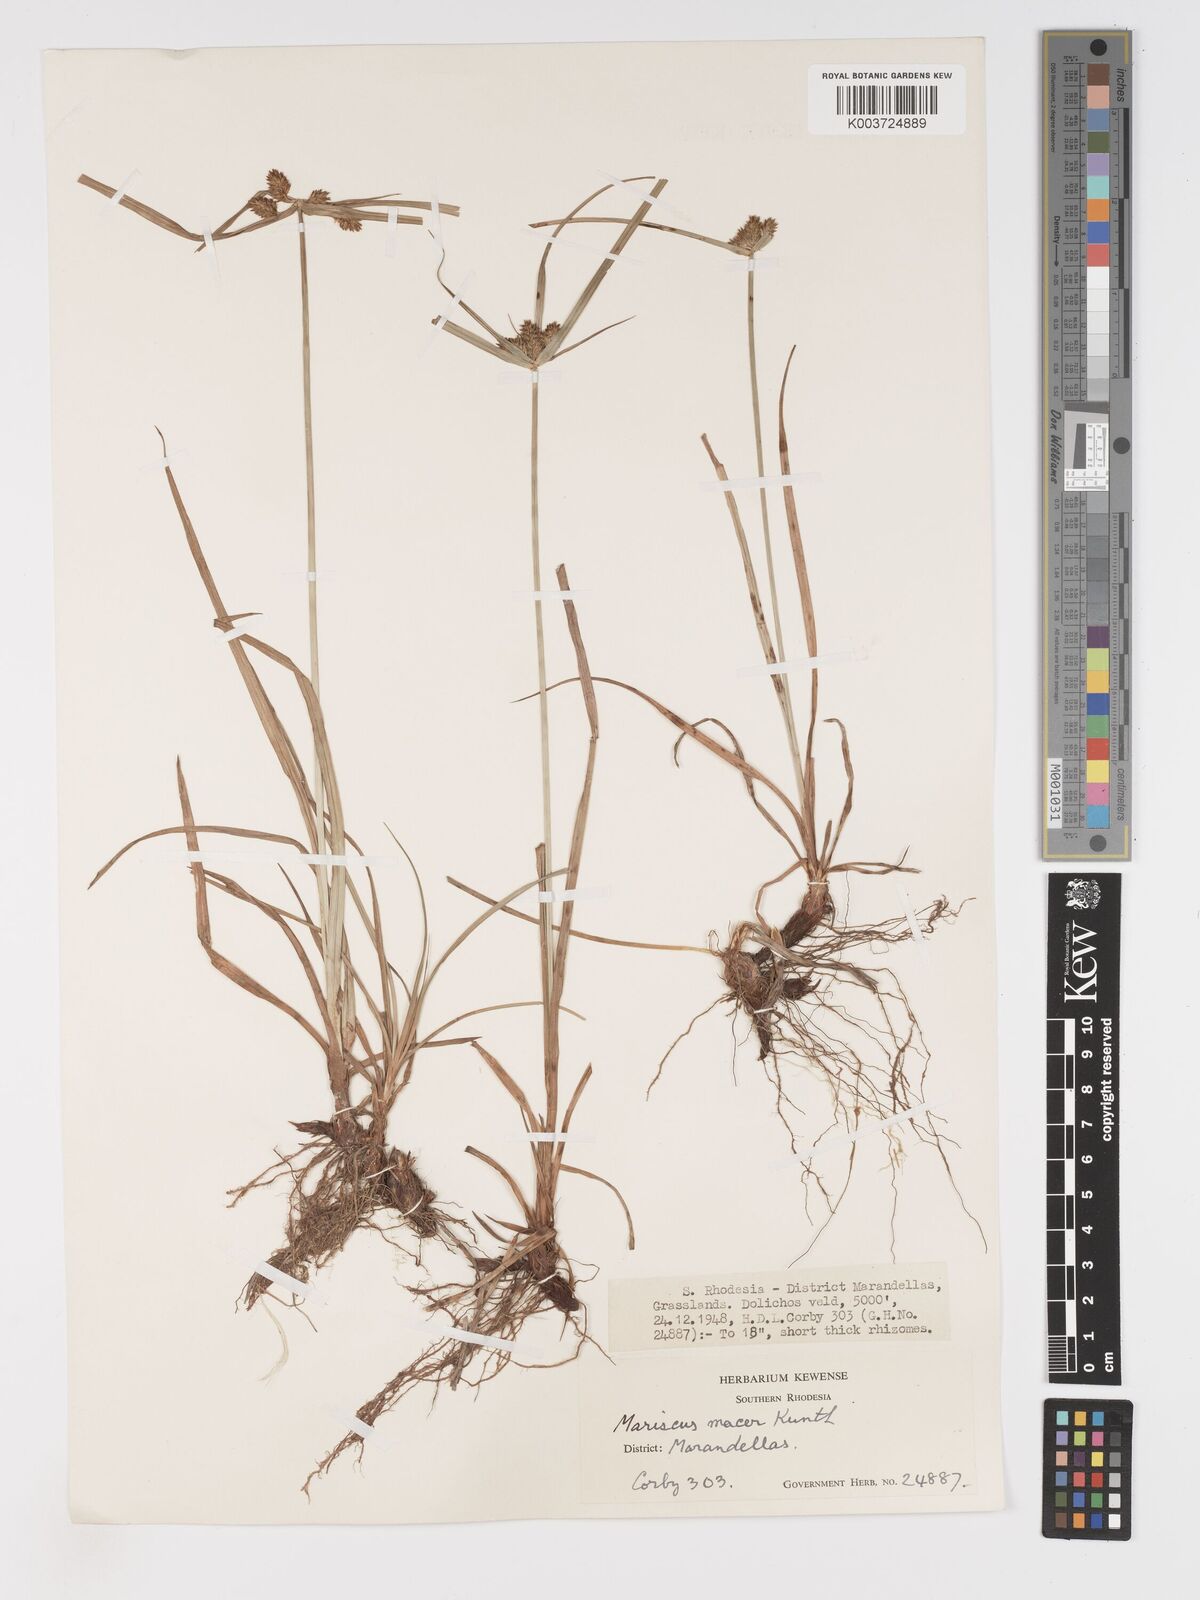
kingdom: Plantae
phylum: Tracheophyta
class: Liliopsida
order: Poales
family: Cyperaceae
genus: Cyperus
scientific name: Cyperus pseudoflavus
